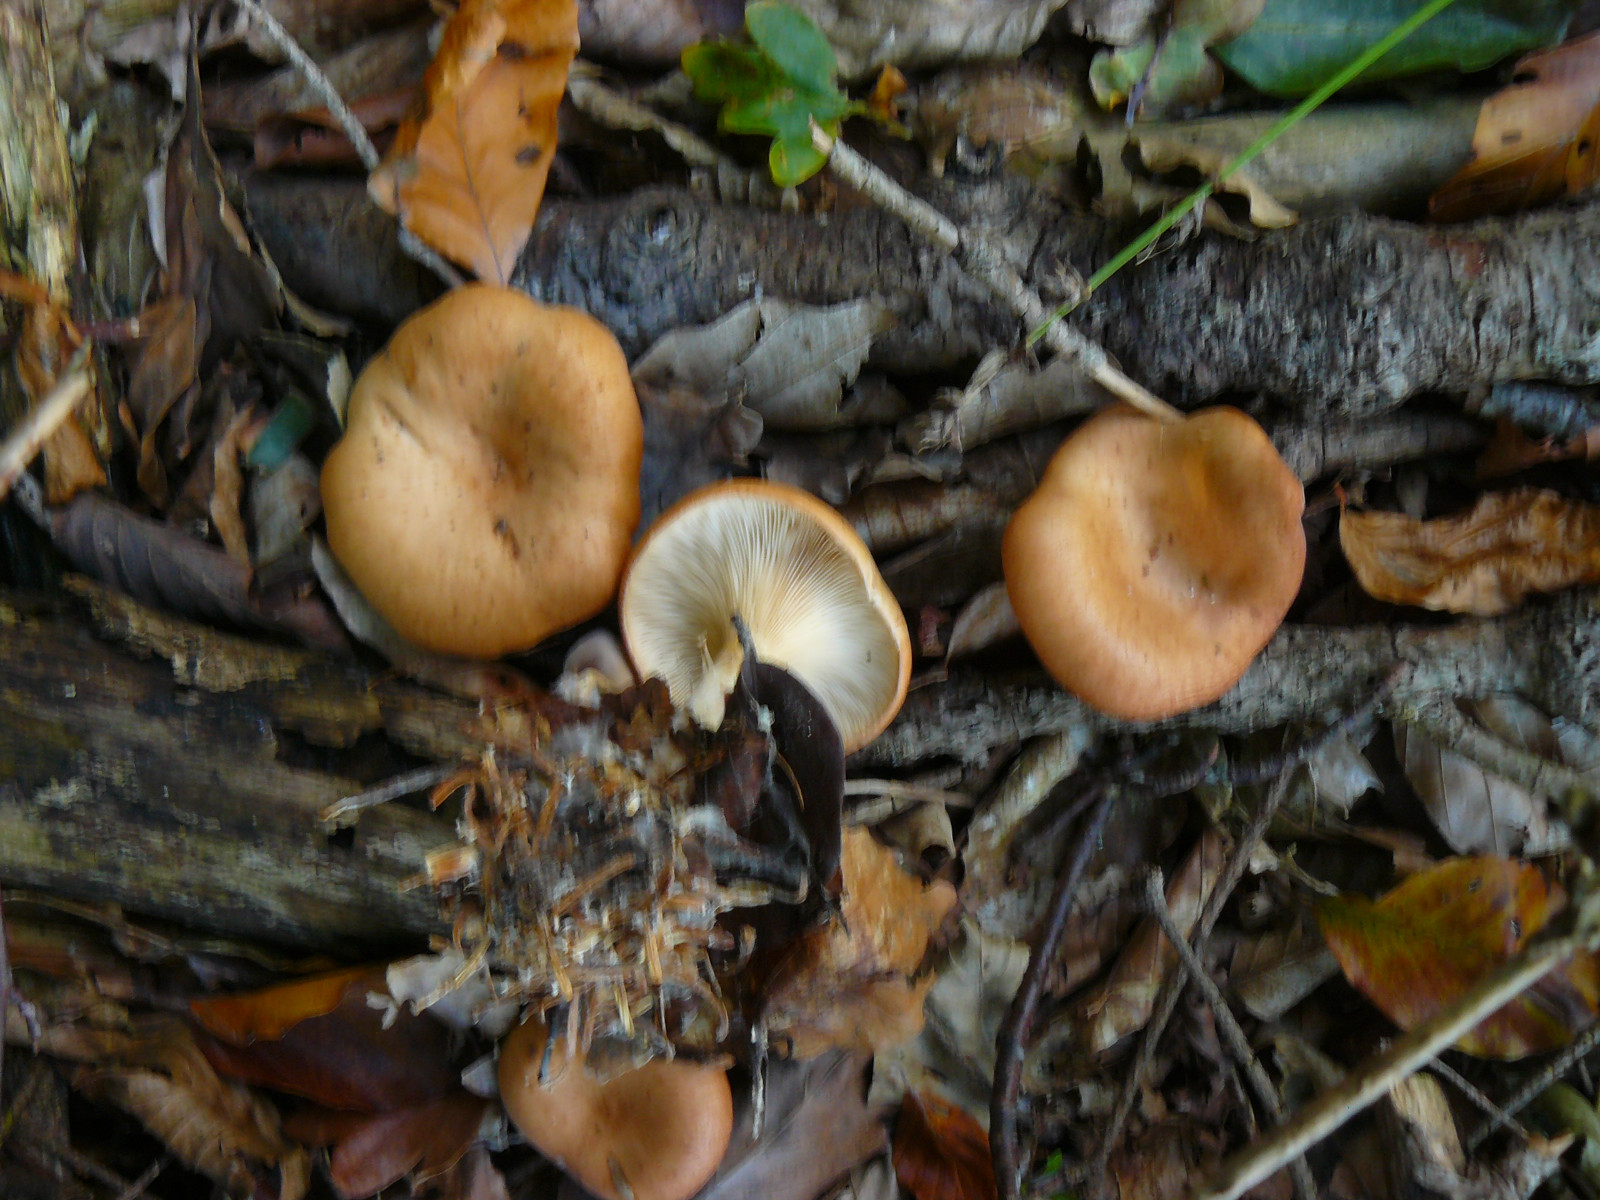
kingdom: Fungi
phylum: Basidiomycota
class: Agaricomycetes
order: Agaricales
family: Tricholomataceae
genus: Paralepista
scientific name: Paralepista flaccida
